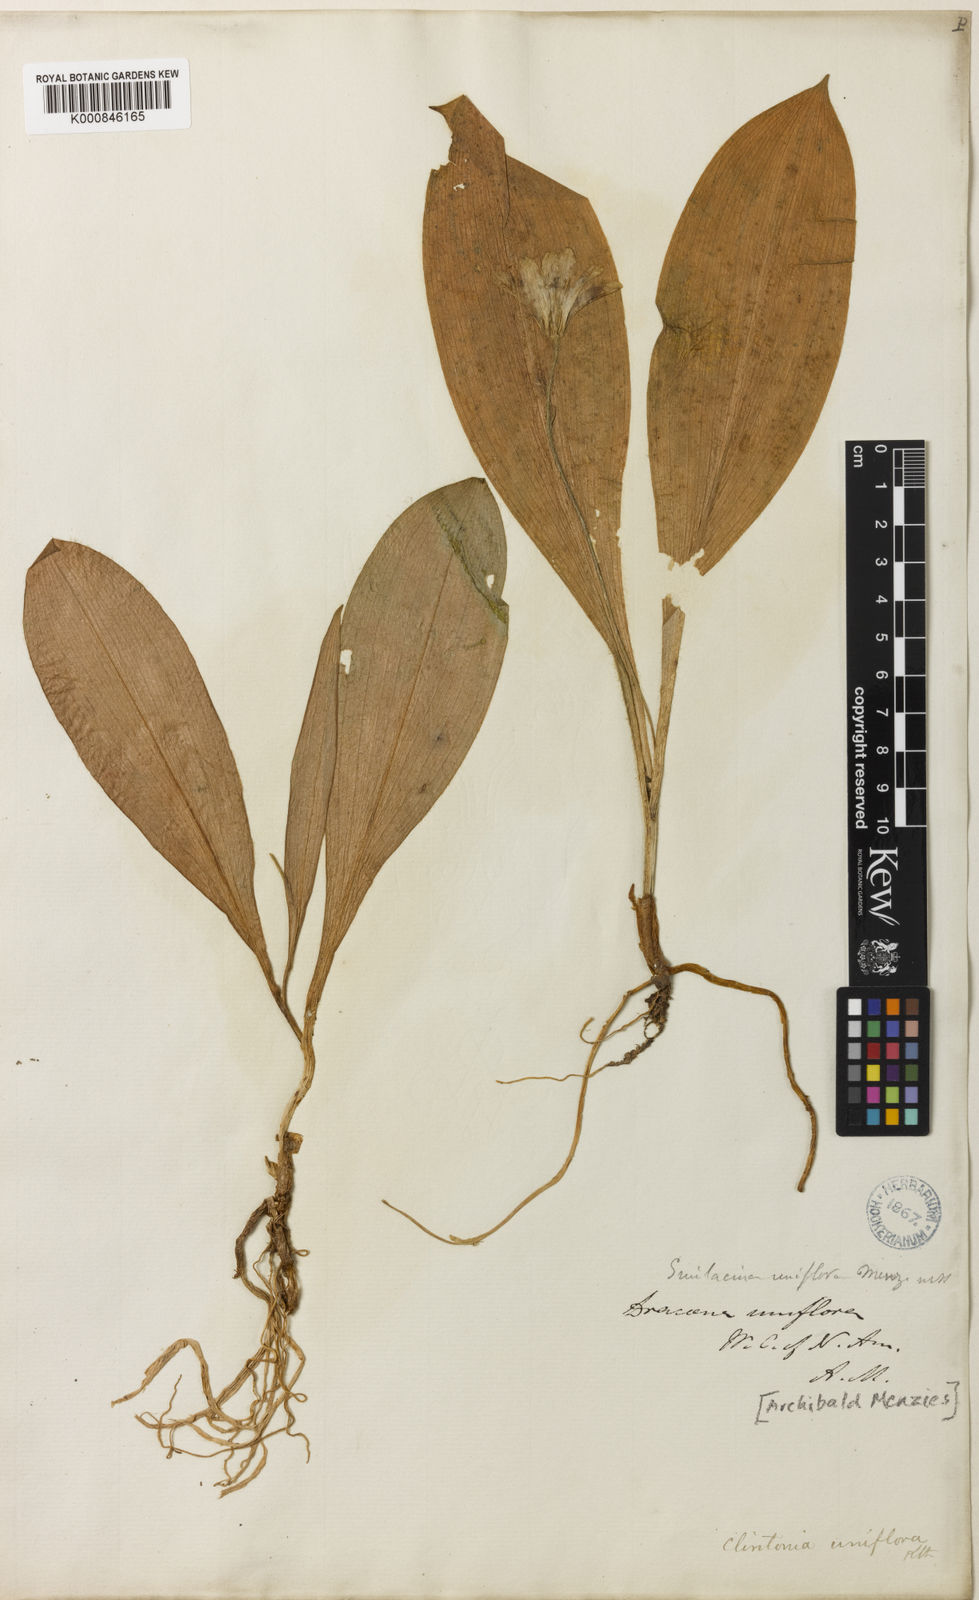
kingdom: Plantae
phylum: Tracheophyta
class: Liliopsida
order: Liliales
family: Liliaceae
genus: Clintonia
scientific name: Clintonia uniflora
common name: Queen's cup
